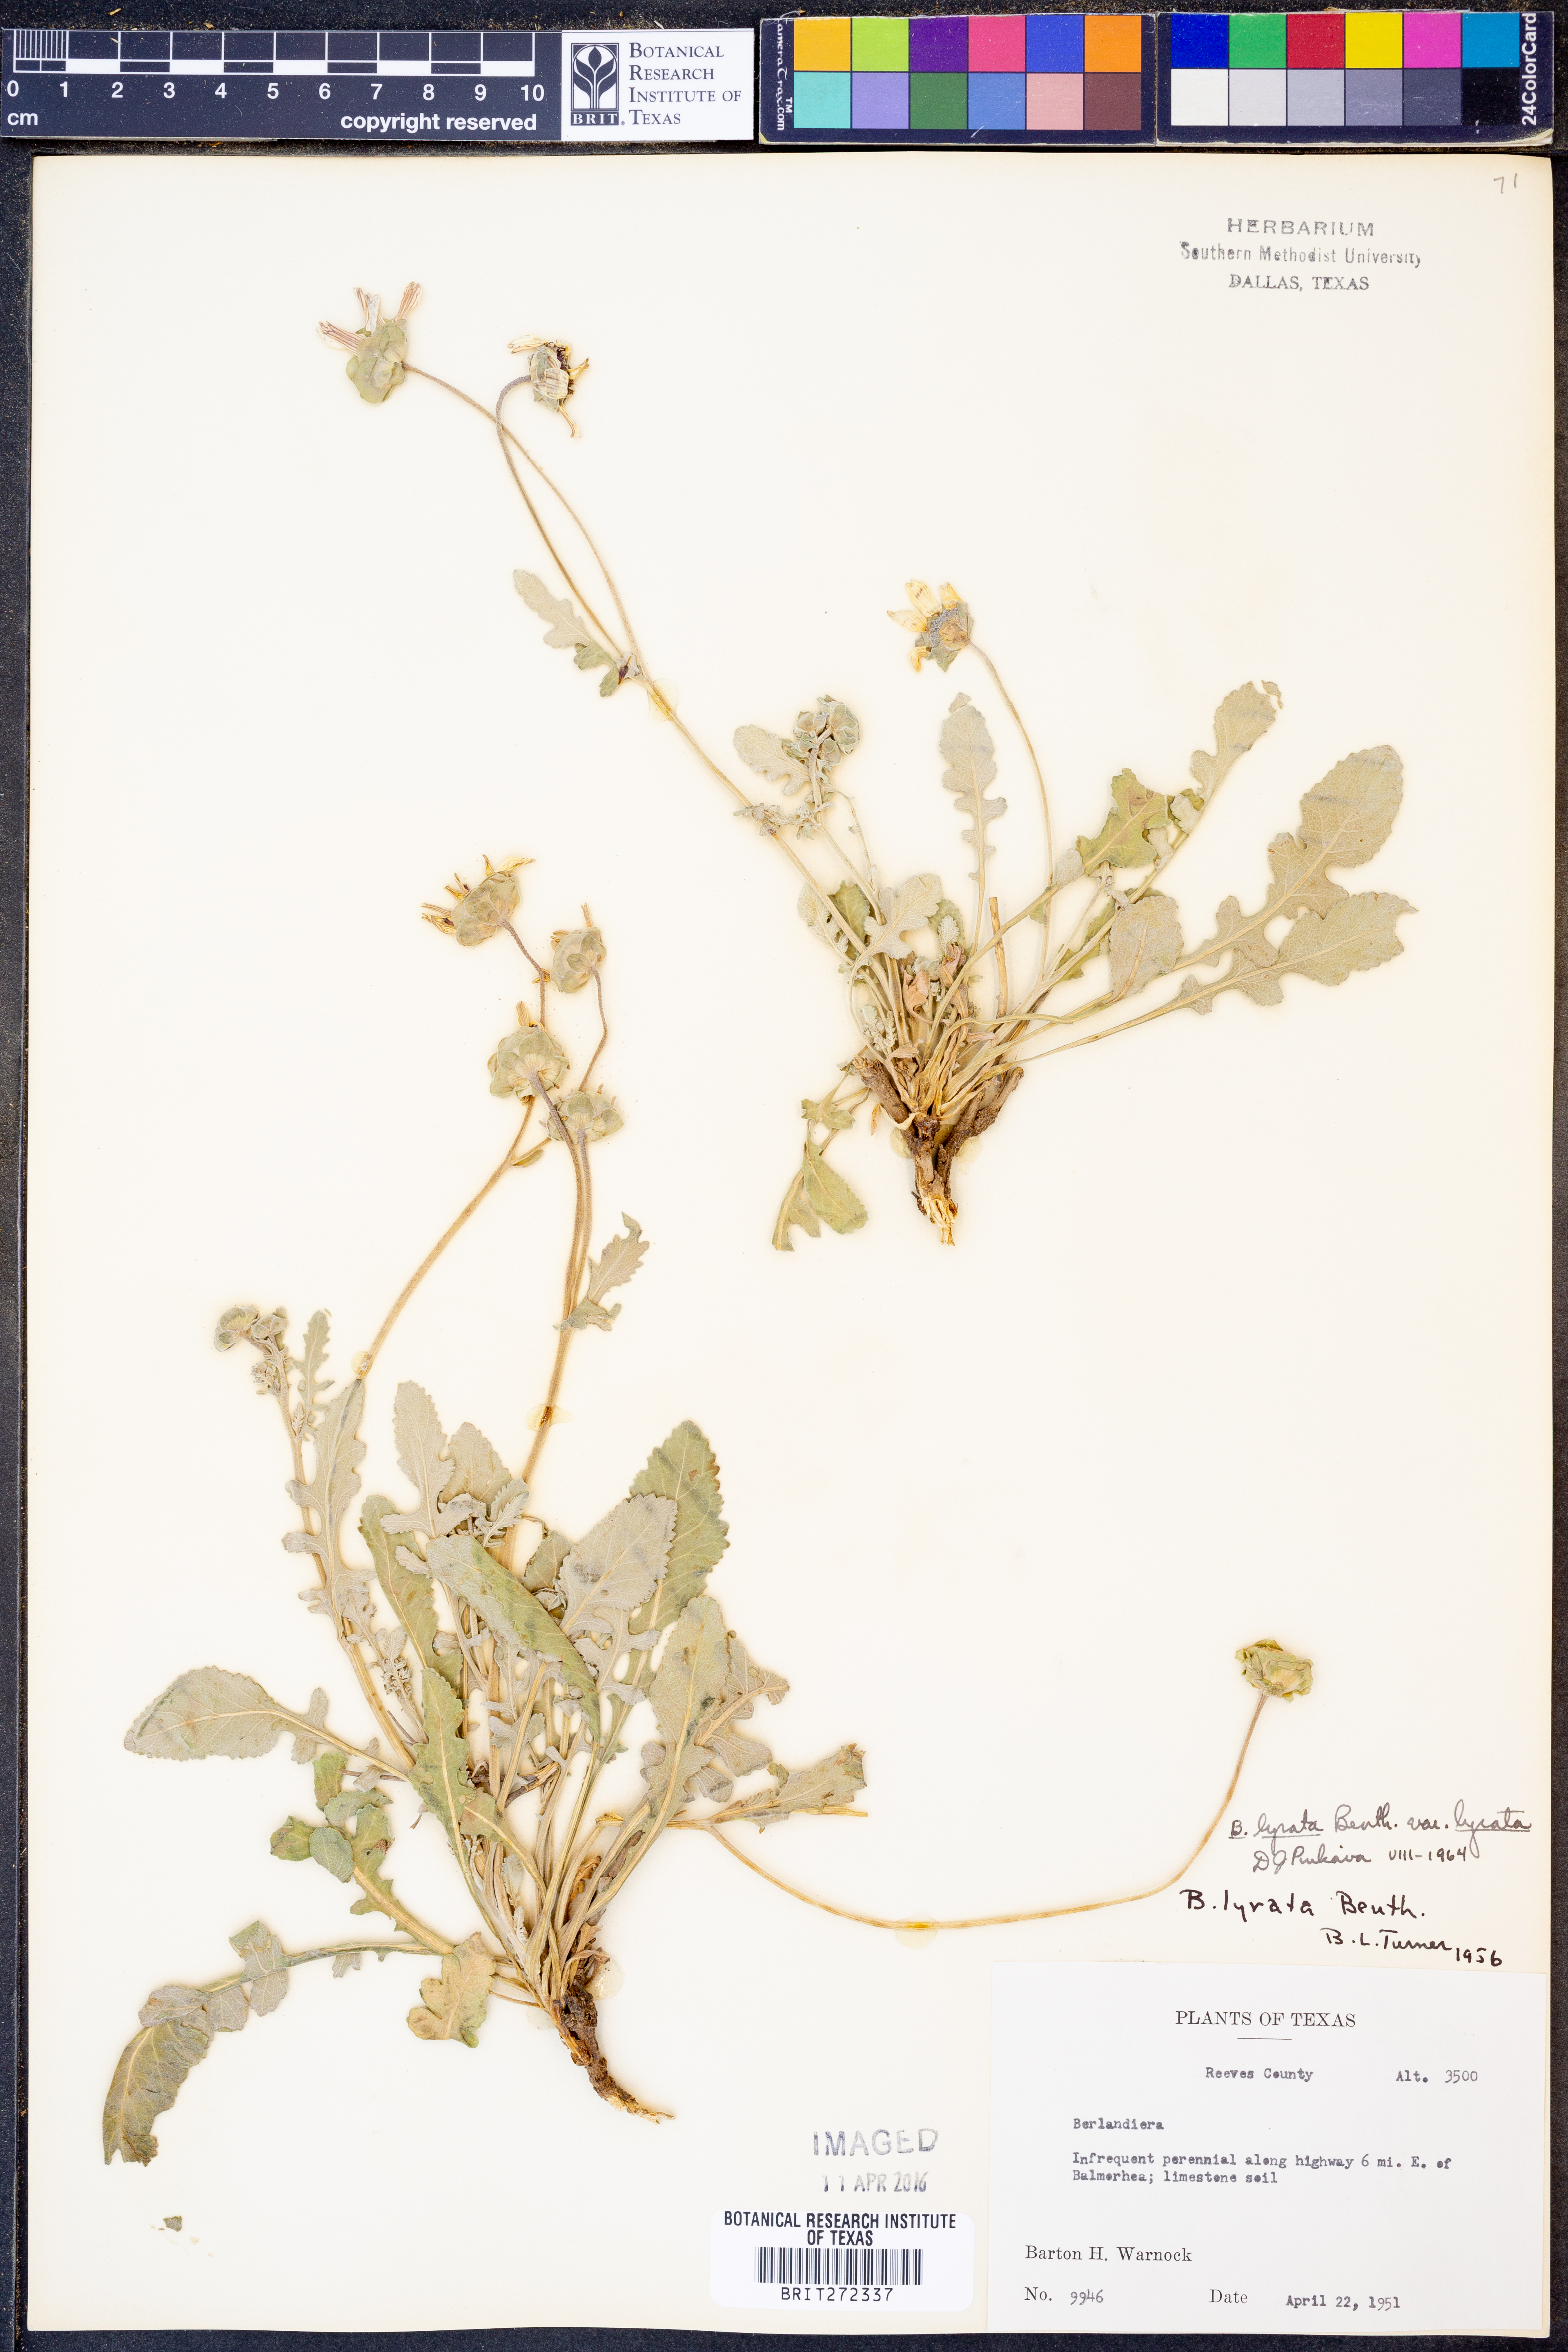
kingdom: Plantae
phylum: Tracheophyta
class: Magnoliopsida
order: Asterales
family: Asteraceae
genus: Berlandiera
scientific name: Berlandiera lyrata
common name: Chocolate-flower
